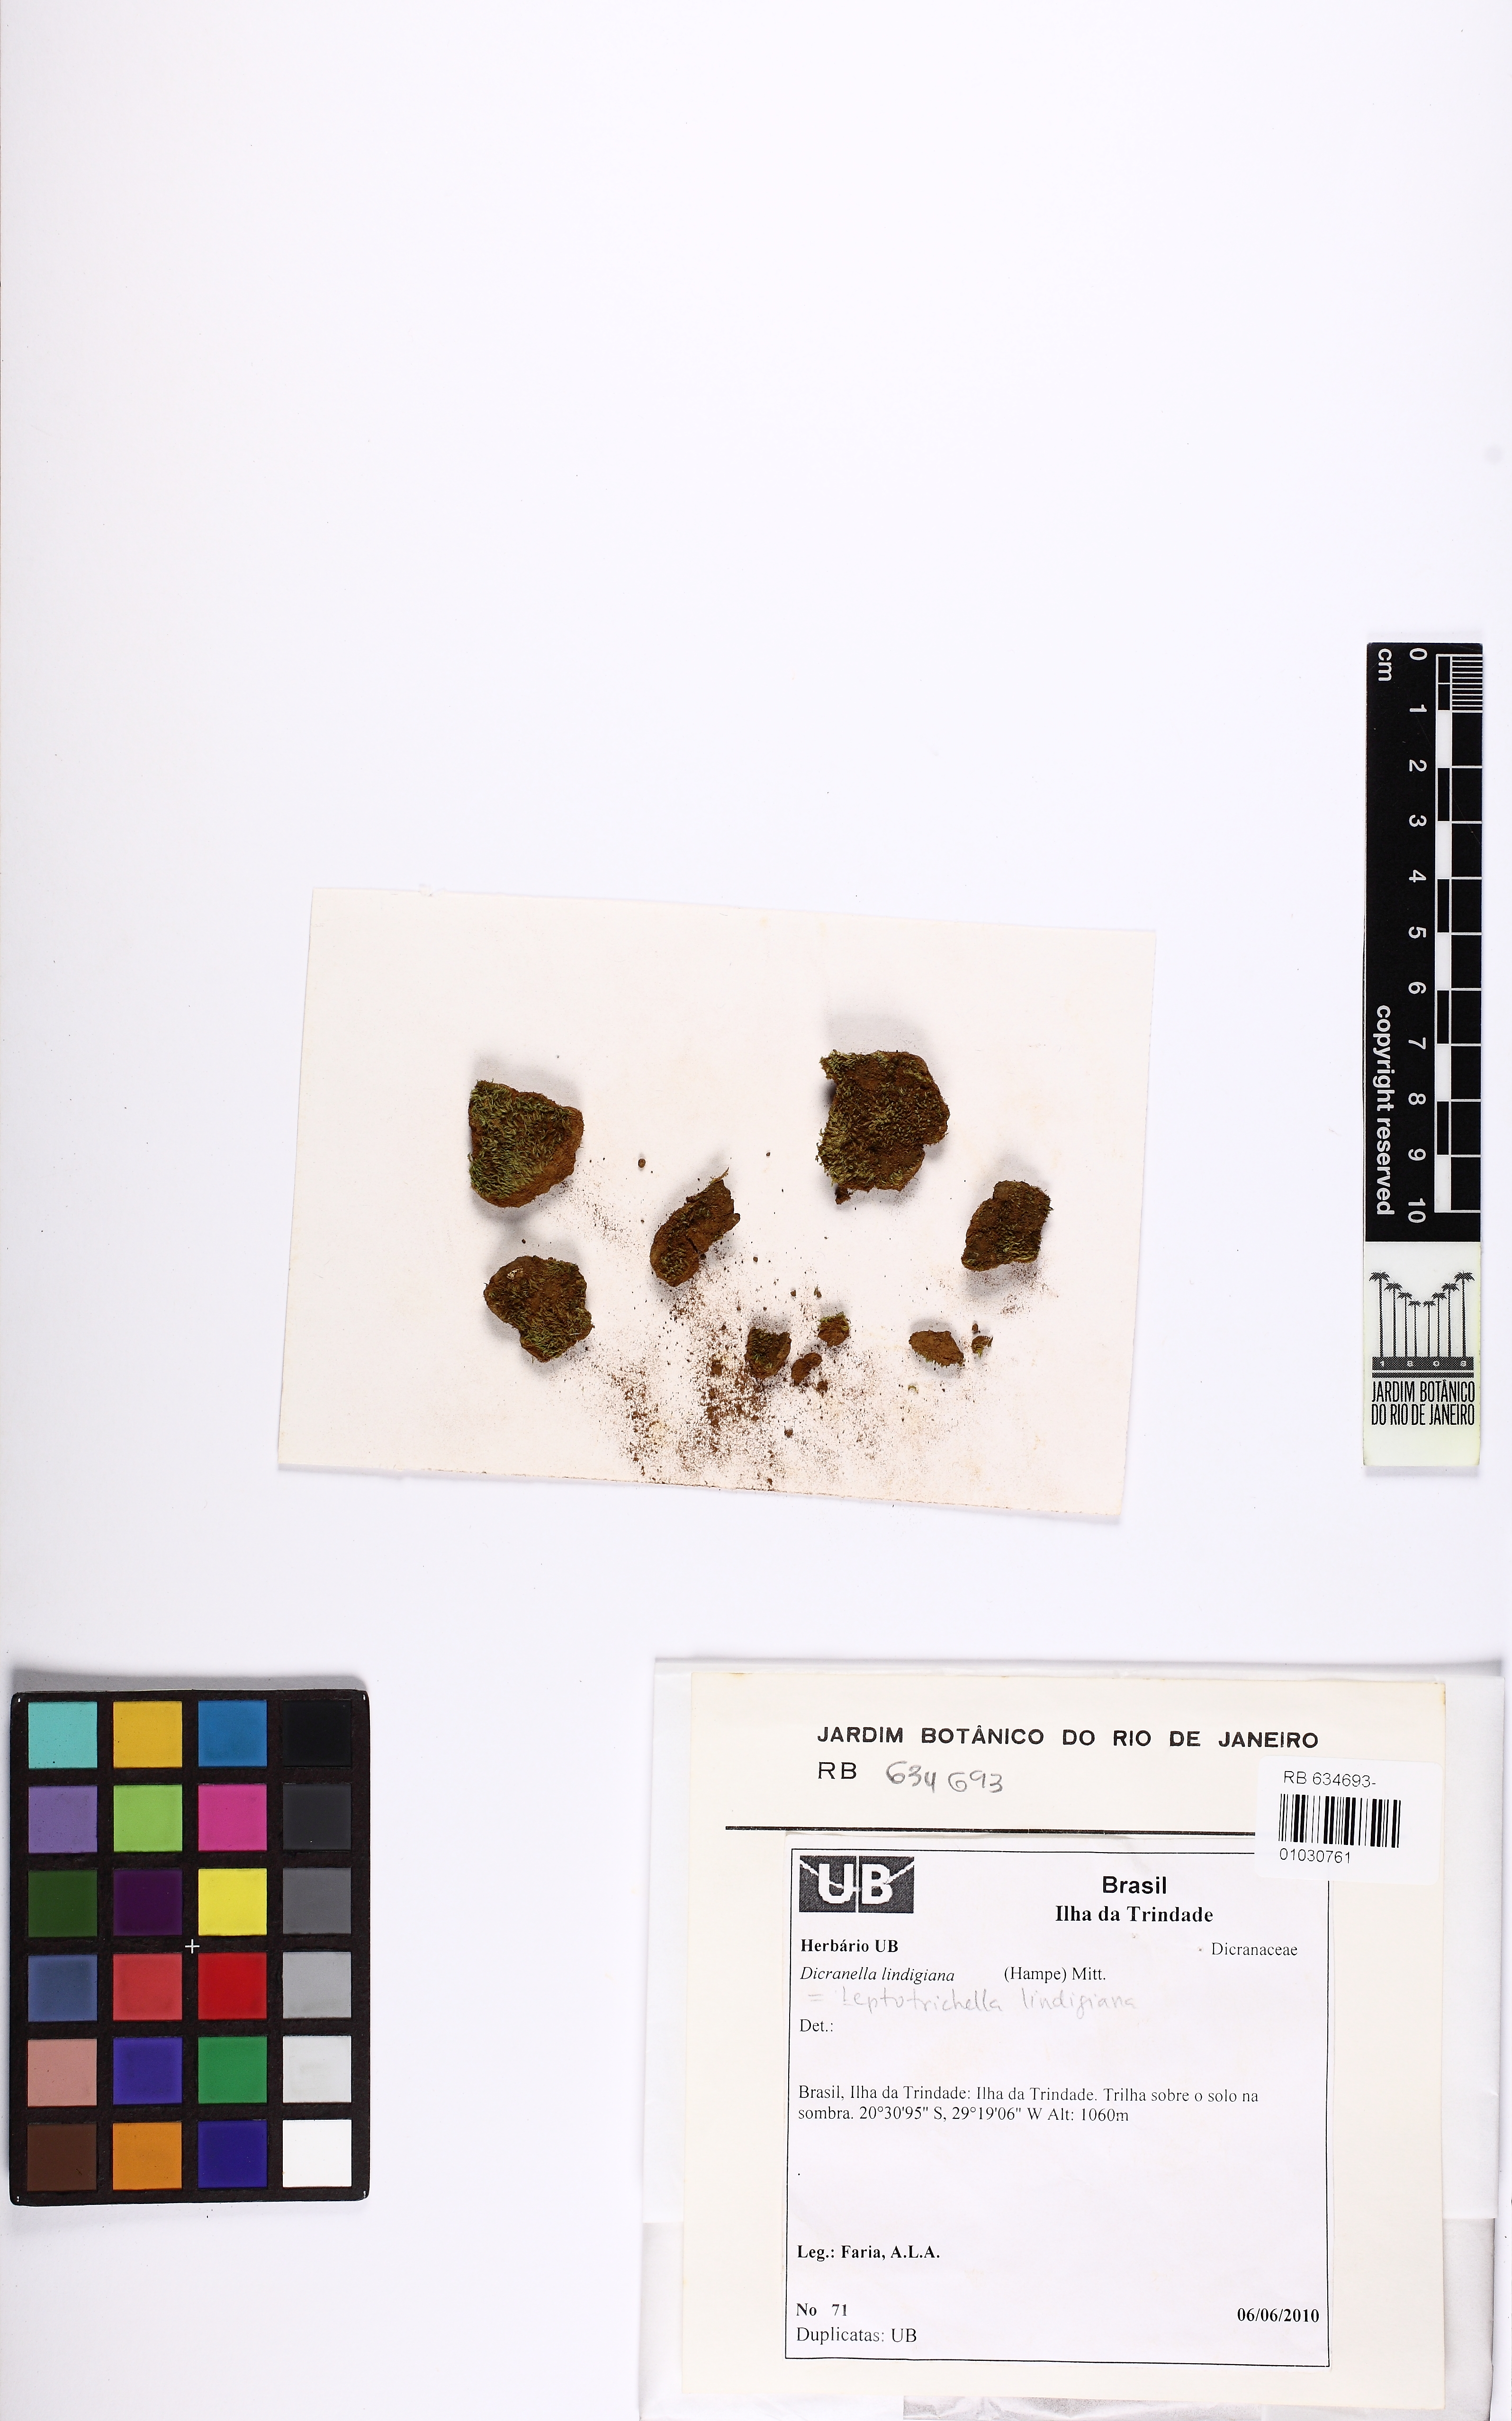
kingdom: Plantae
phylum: Bryophyta
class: Bryopsida
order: Dicranales
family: Dicranellaceae
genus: Dicranella
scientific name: Dicranella lindigiana
